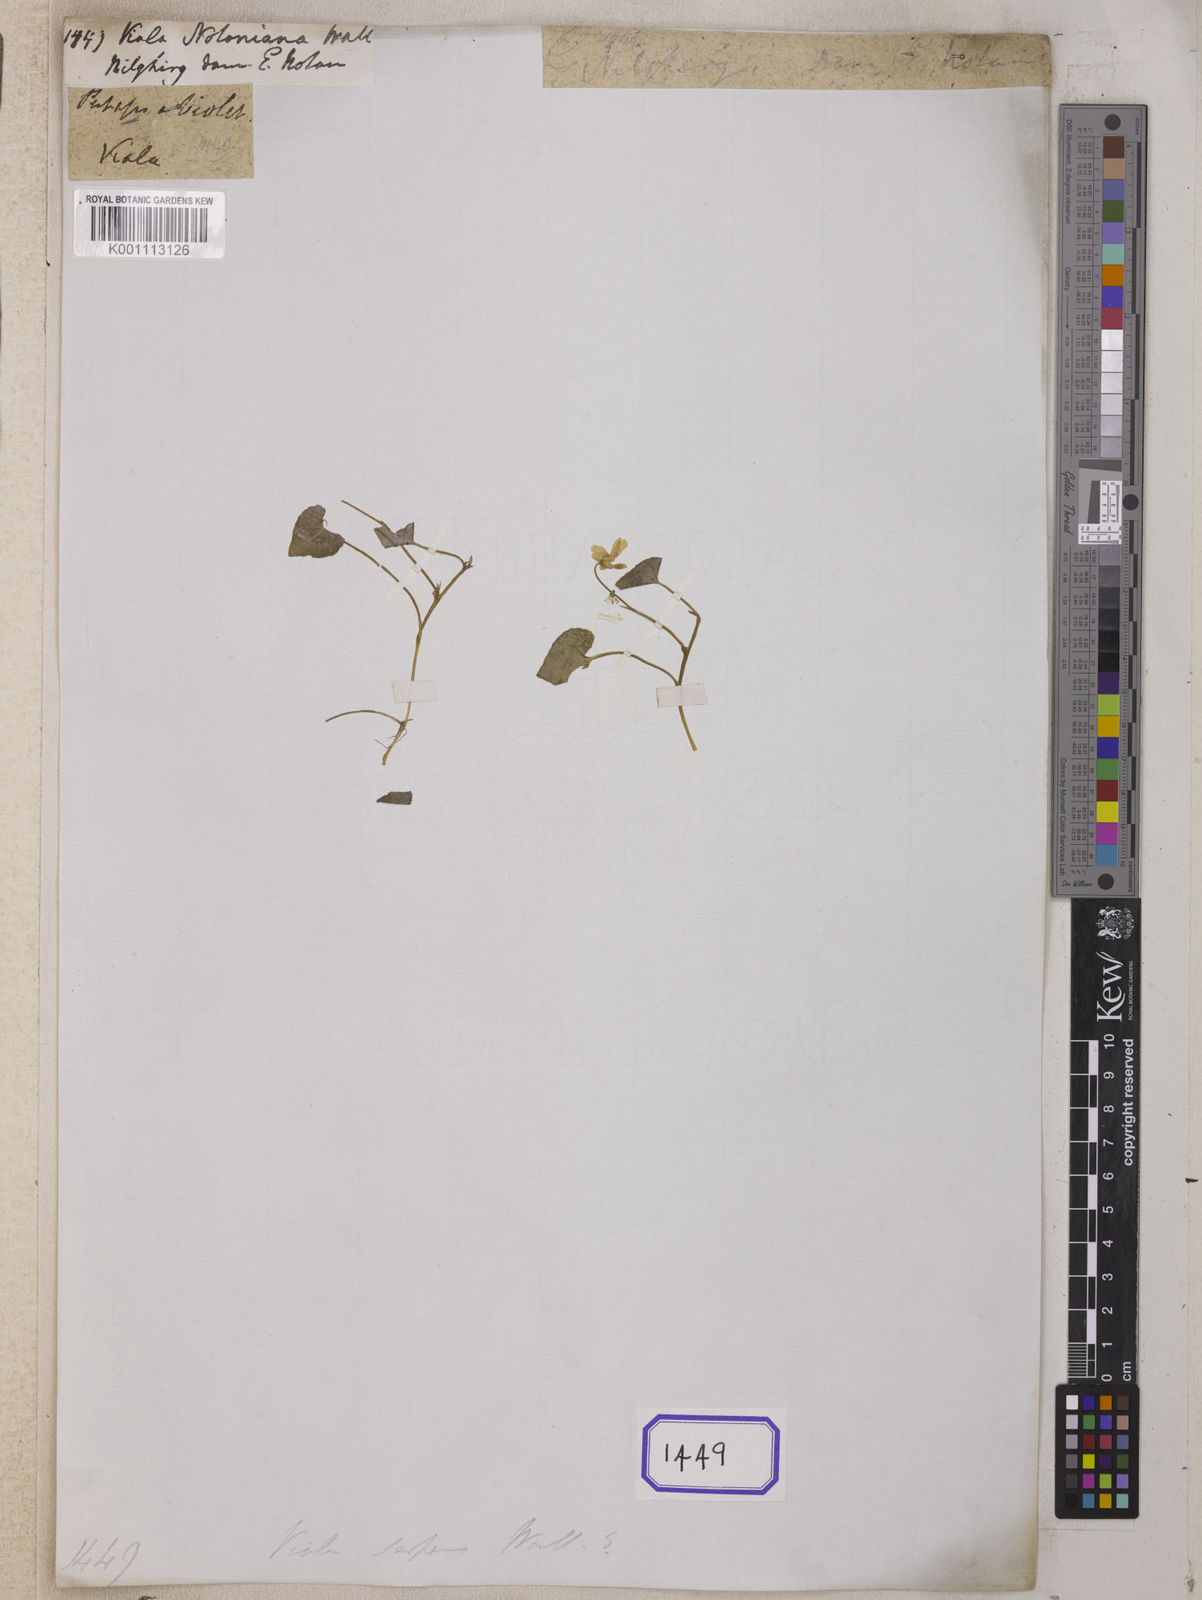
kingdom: Plantae
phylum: Tracheophyta
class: Magnoliopsida
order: Malpighiales
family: Violaceae
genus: Viola
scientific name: Viola hamiltoniana
